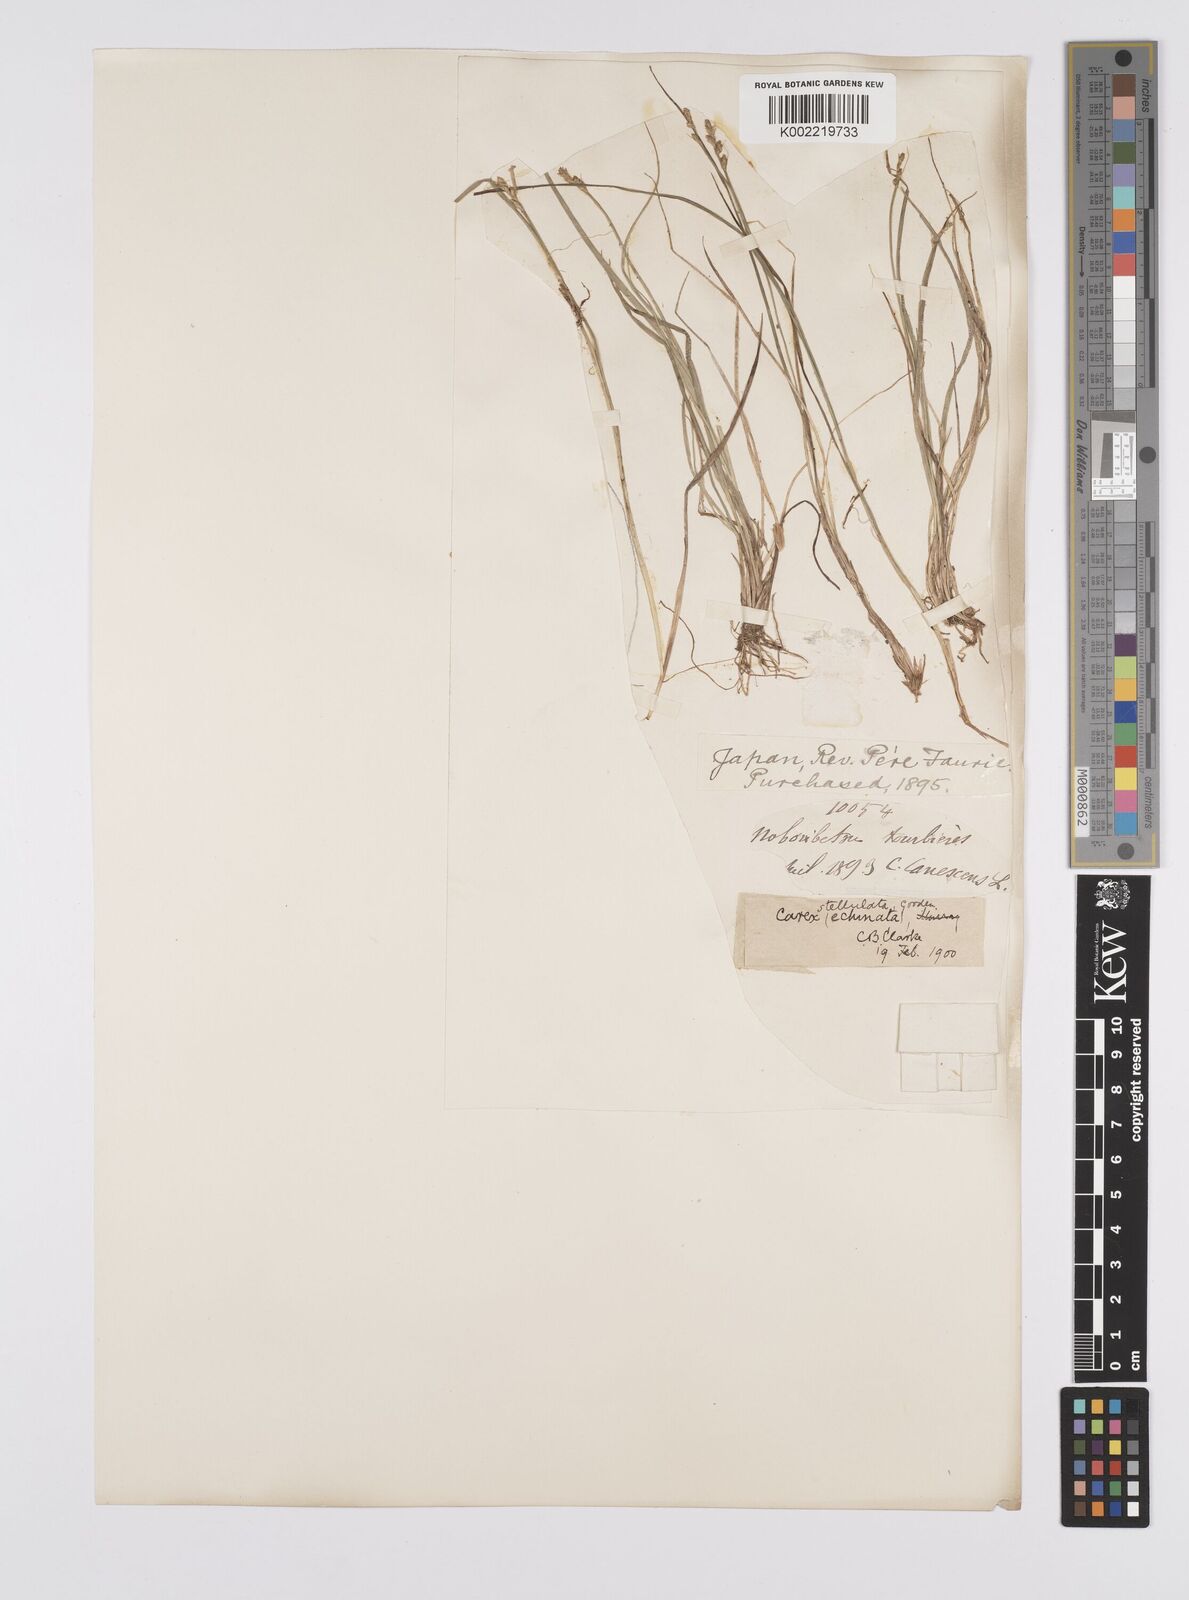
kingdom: Plantae
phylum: Tracheophyta
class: Liliopsida
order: Poales
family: Cyperaceae
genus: Carex
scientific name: Carex echinata
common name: Star sedge
